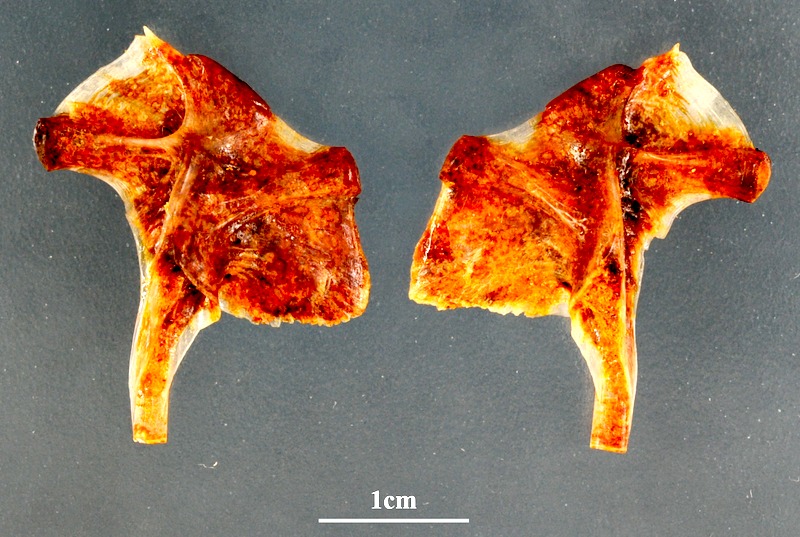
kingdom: Animalia
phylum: Chordata
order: Perciformes
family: Sciaenidae
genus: Umbrina
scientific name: Umbrina cirrosa
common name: Shi drum
